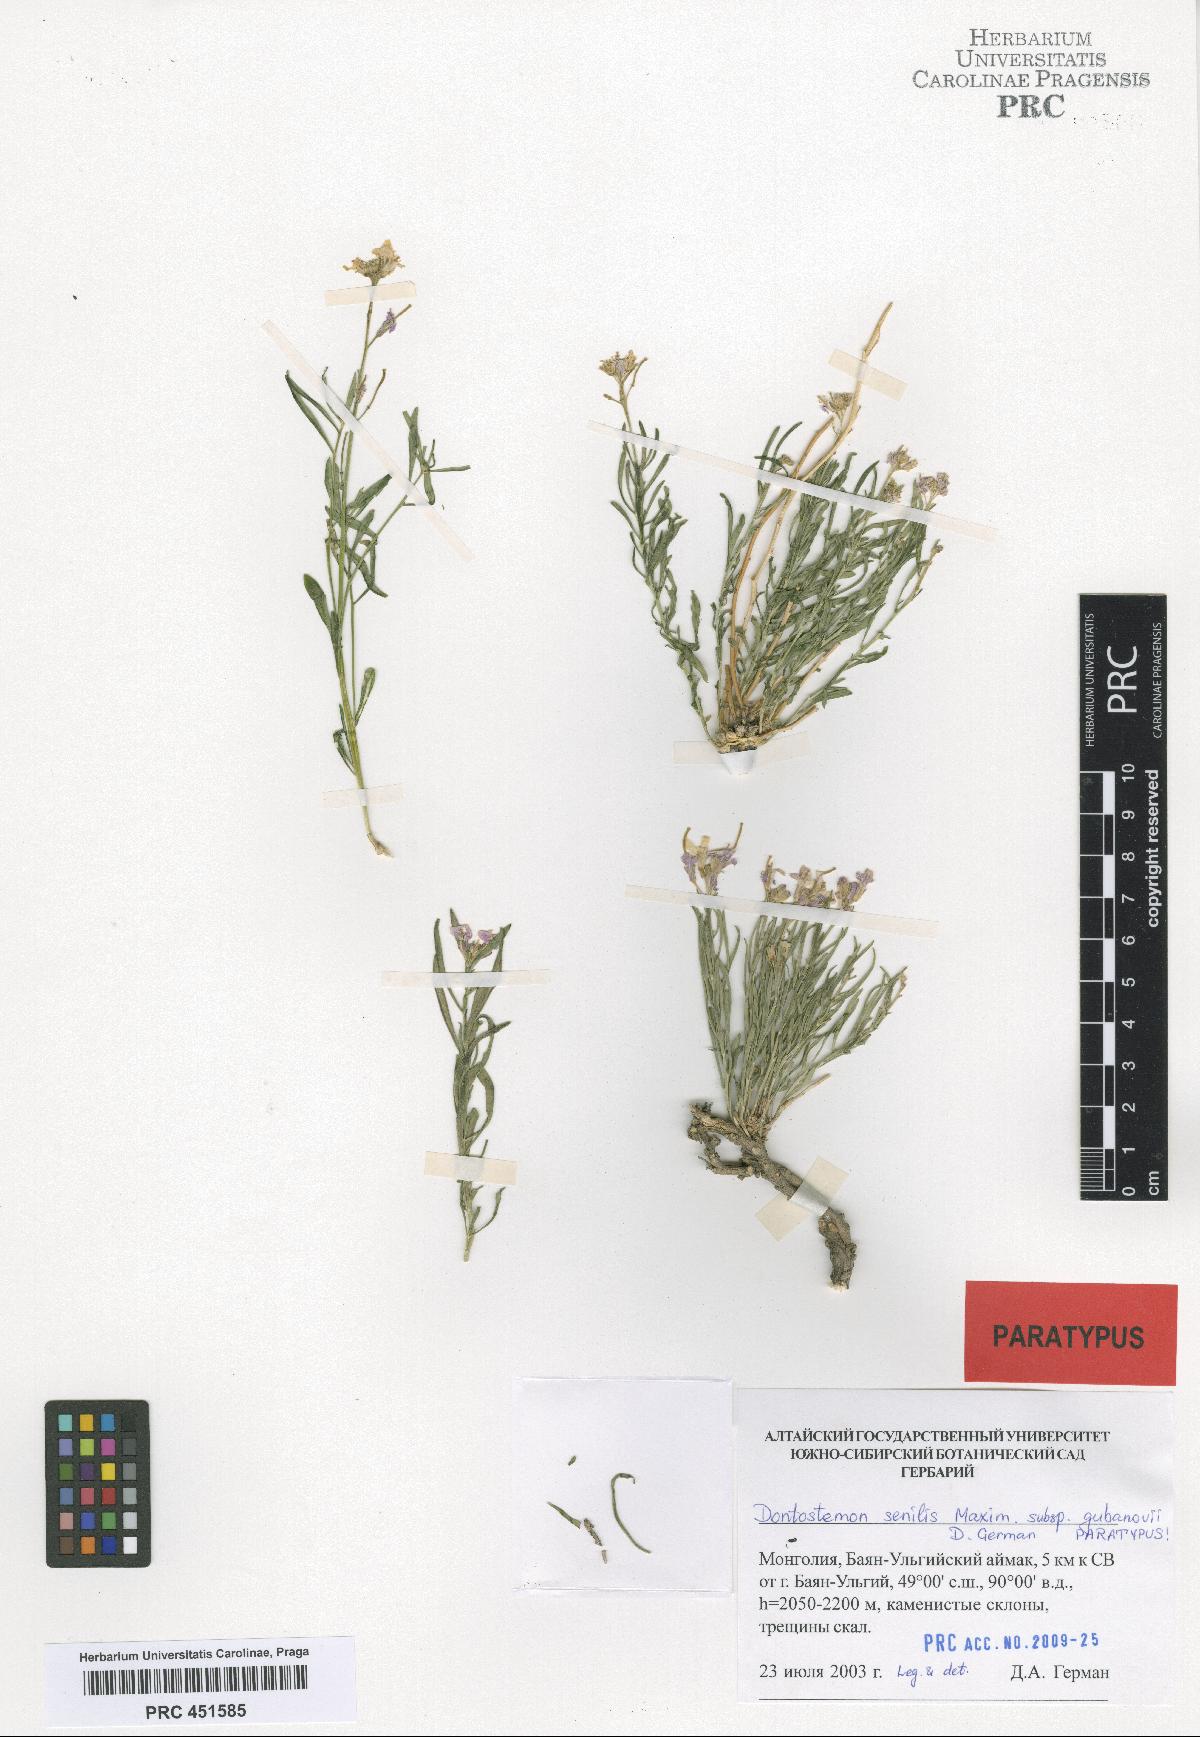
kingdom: Plantae
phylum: Tracheophyta
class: Magnoliopsida
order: Brassicales
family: Brassicaceae
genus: Dontostemon
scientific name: Dontostemon gubanovii
